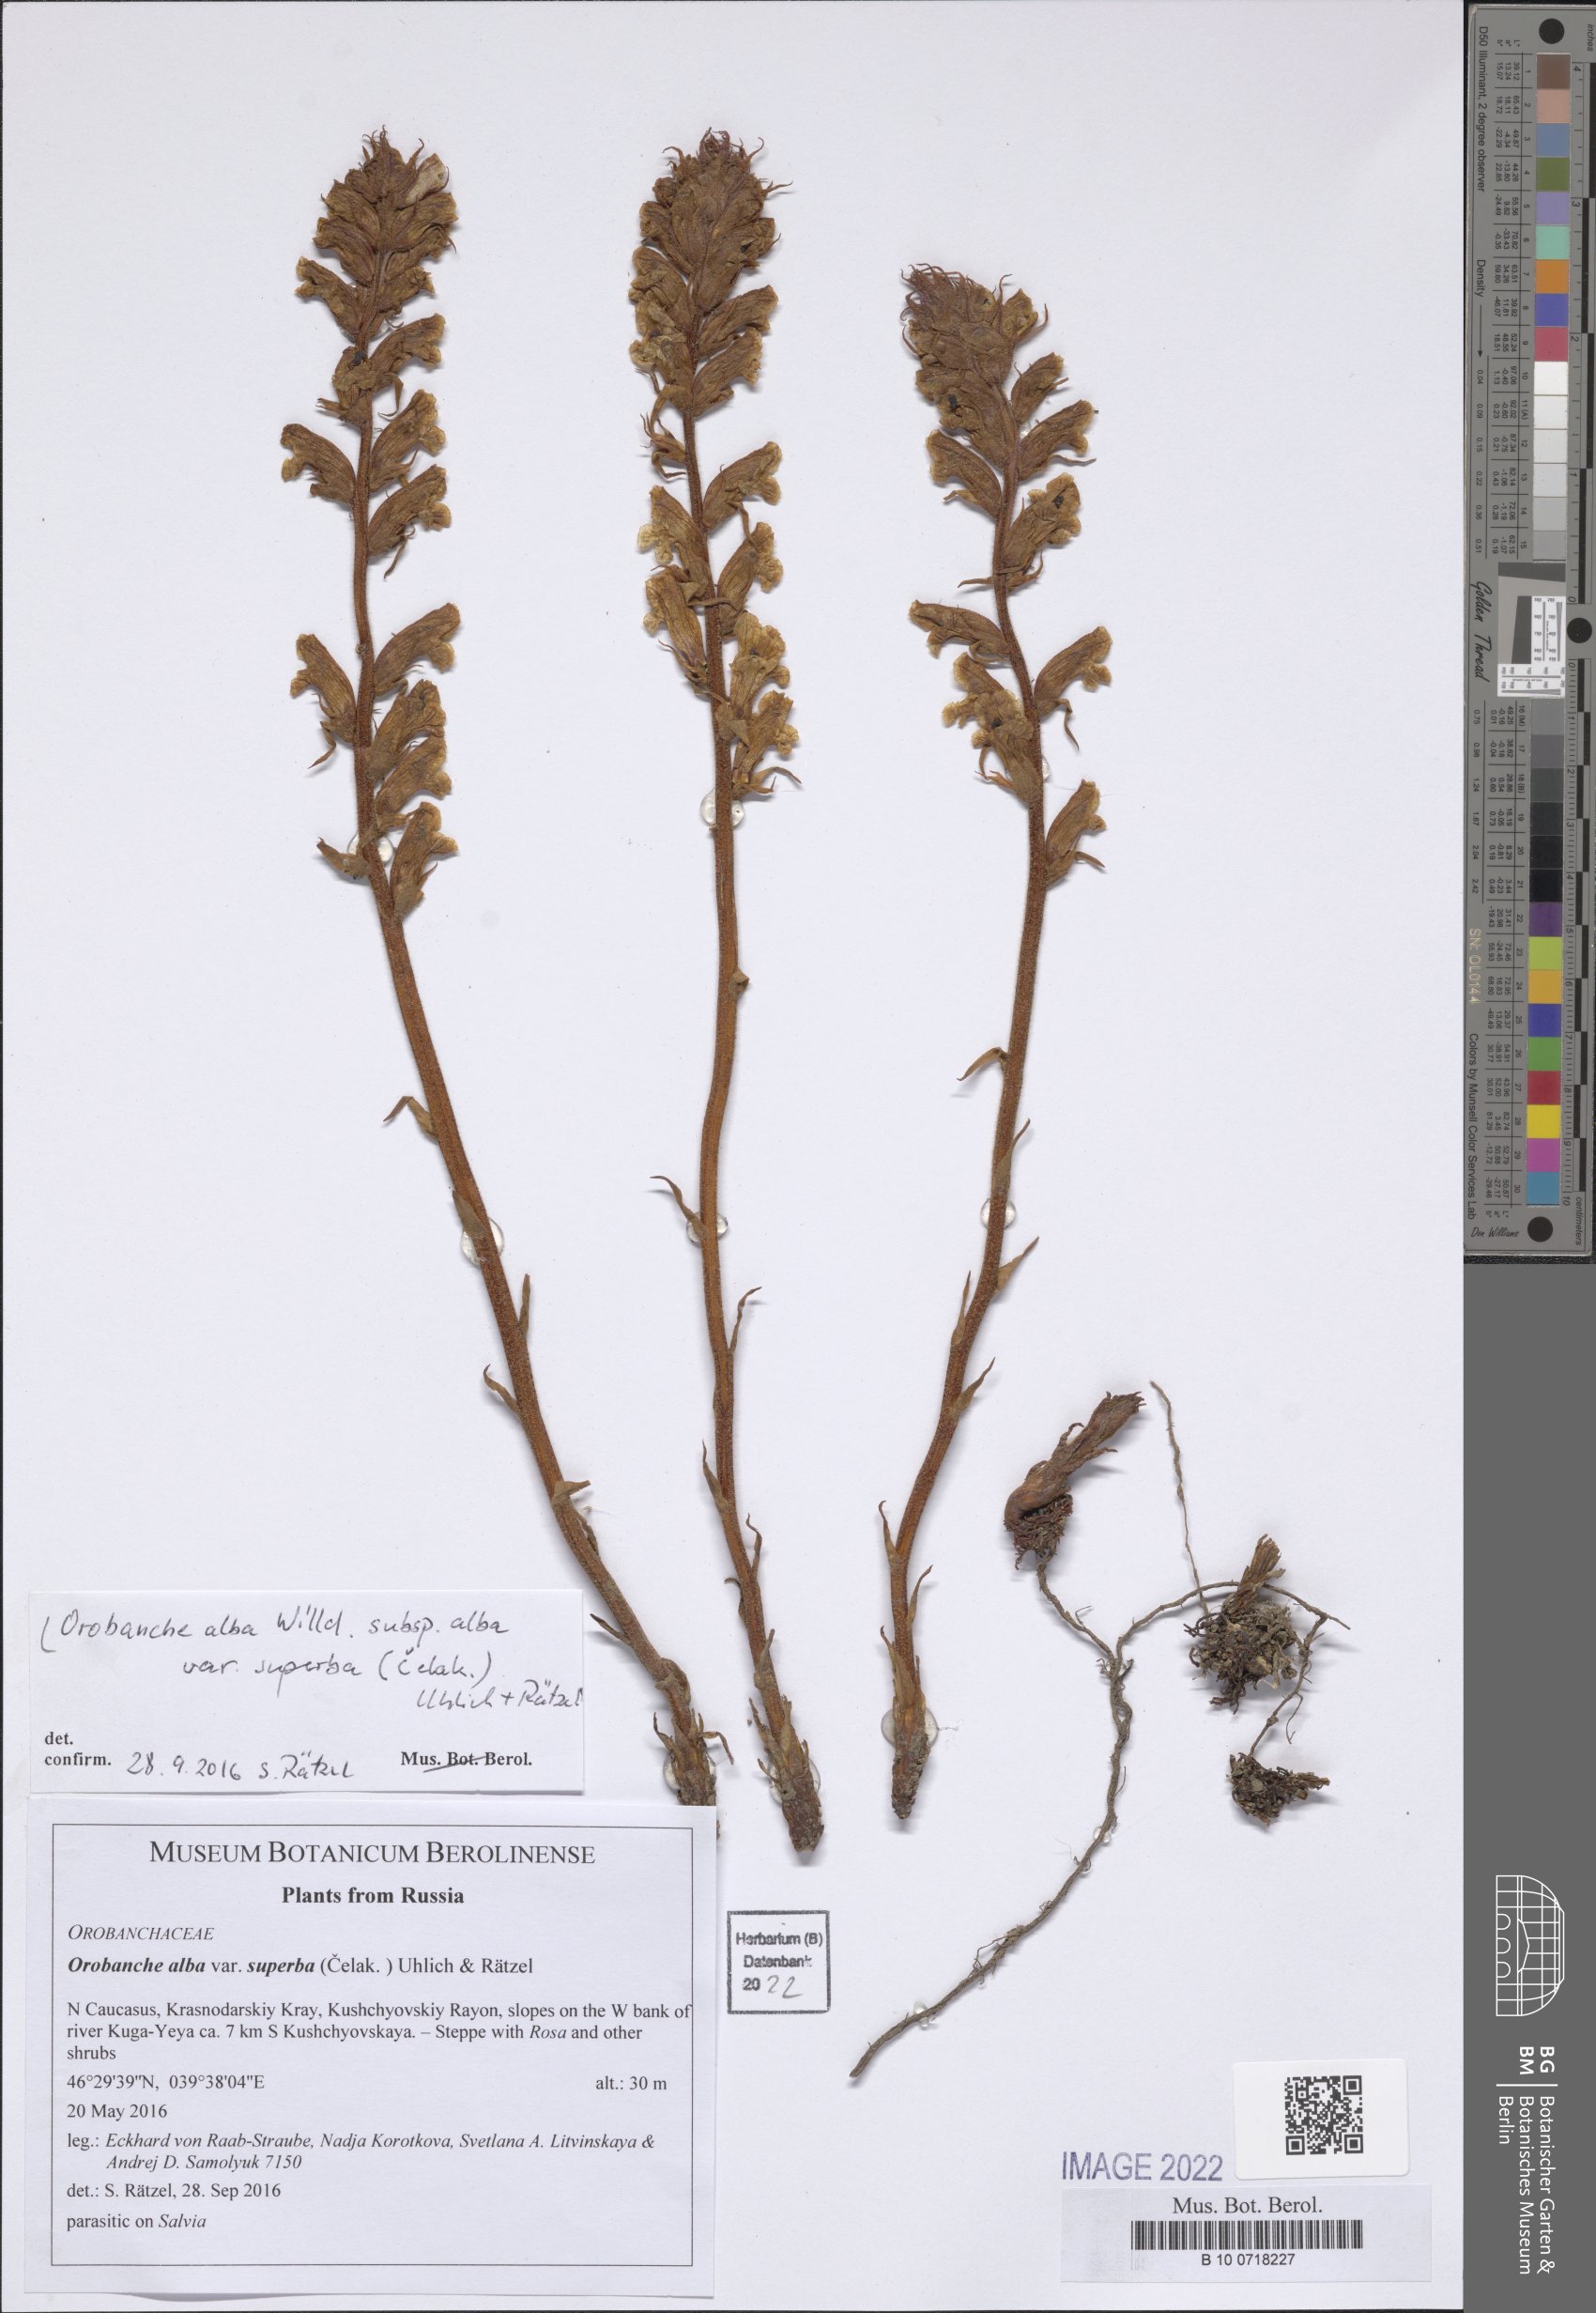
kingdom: Plantae
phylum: Tracheophyta
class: Magnoliopsida
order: Lamiales
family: Orobanchaceae
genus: Orobanche
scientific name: Orobanche alba
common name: Thyme broomrape
